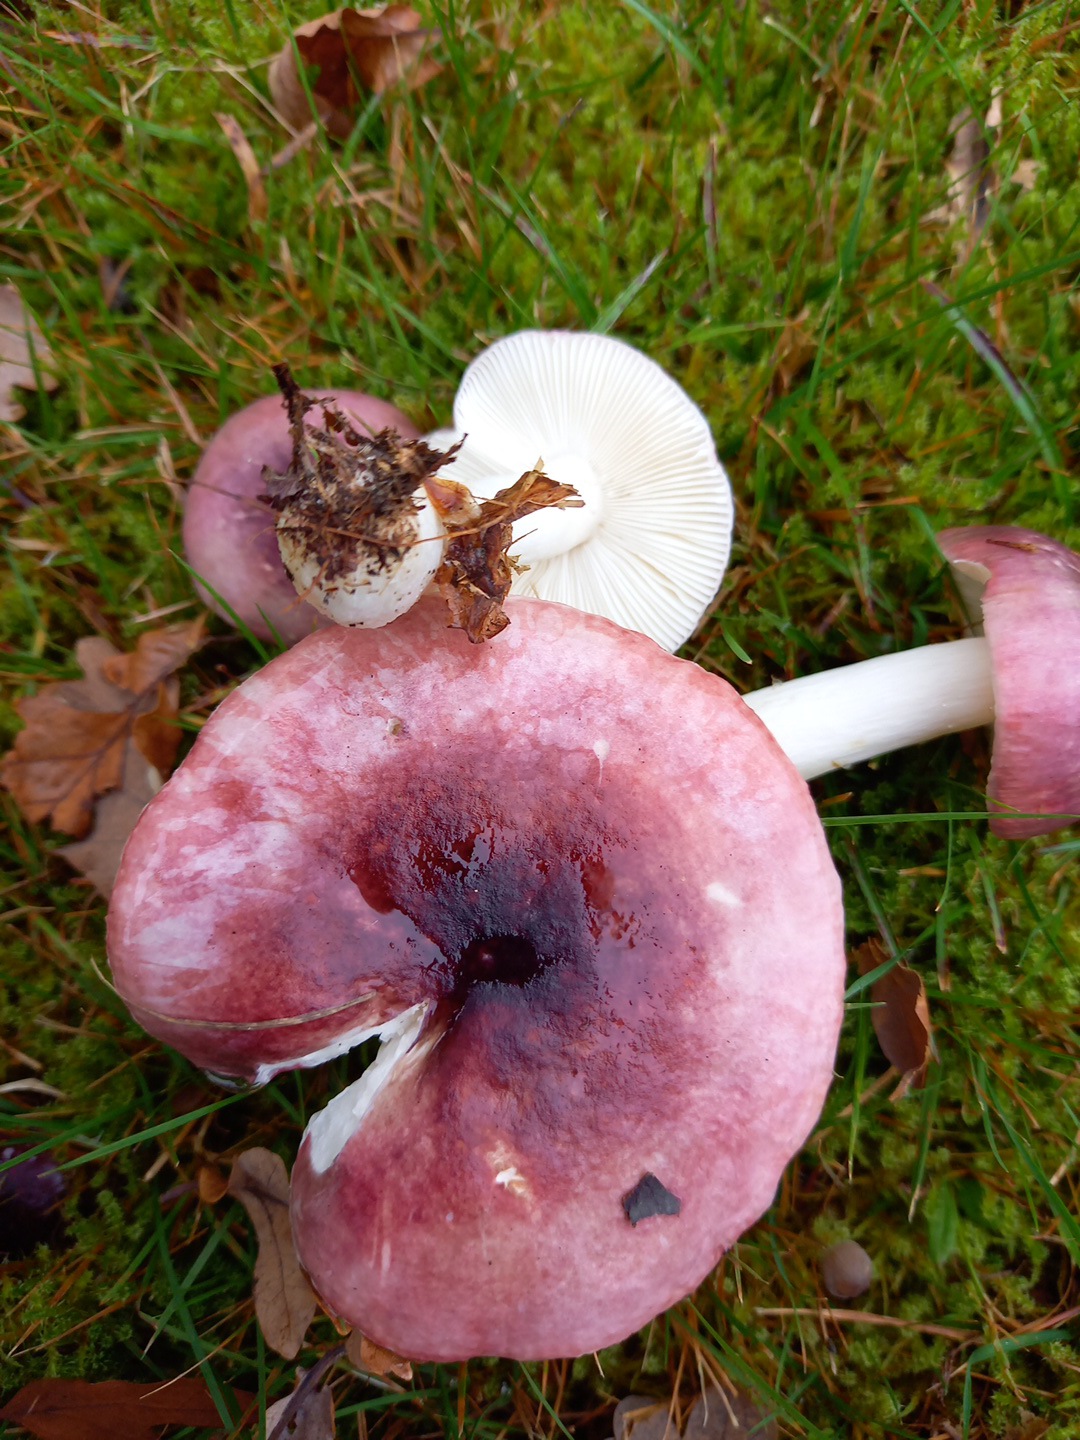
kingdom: Fungi
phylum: Basidiomycota
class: Agaricomycetes
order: Russulales
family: Russulaceae
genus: Russula
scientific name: Russula
